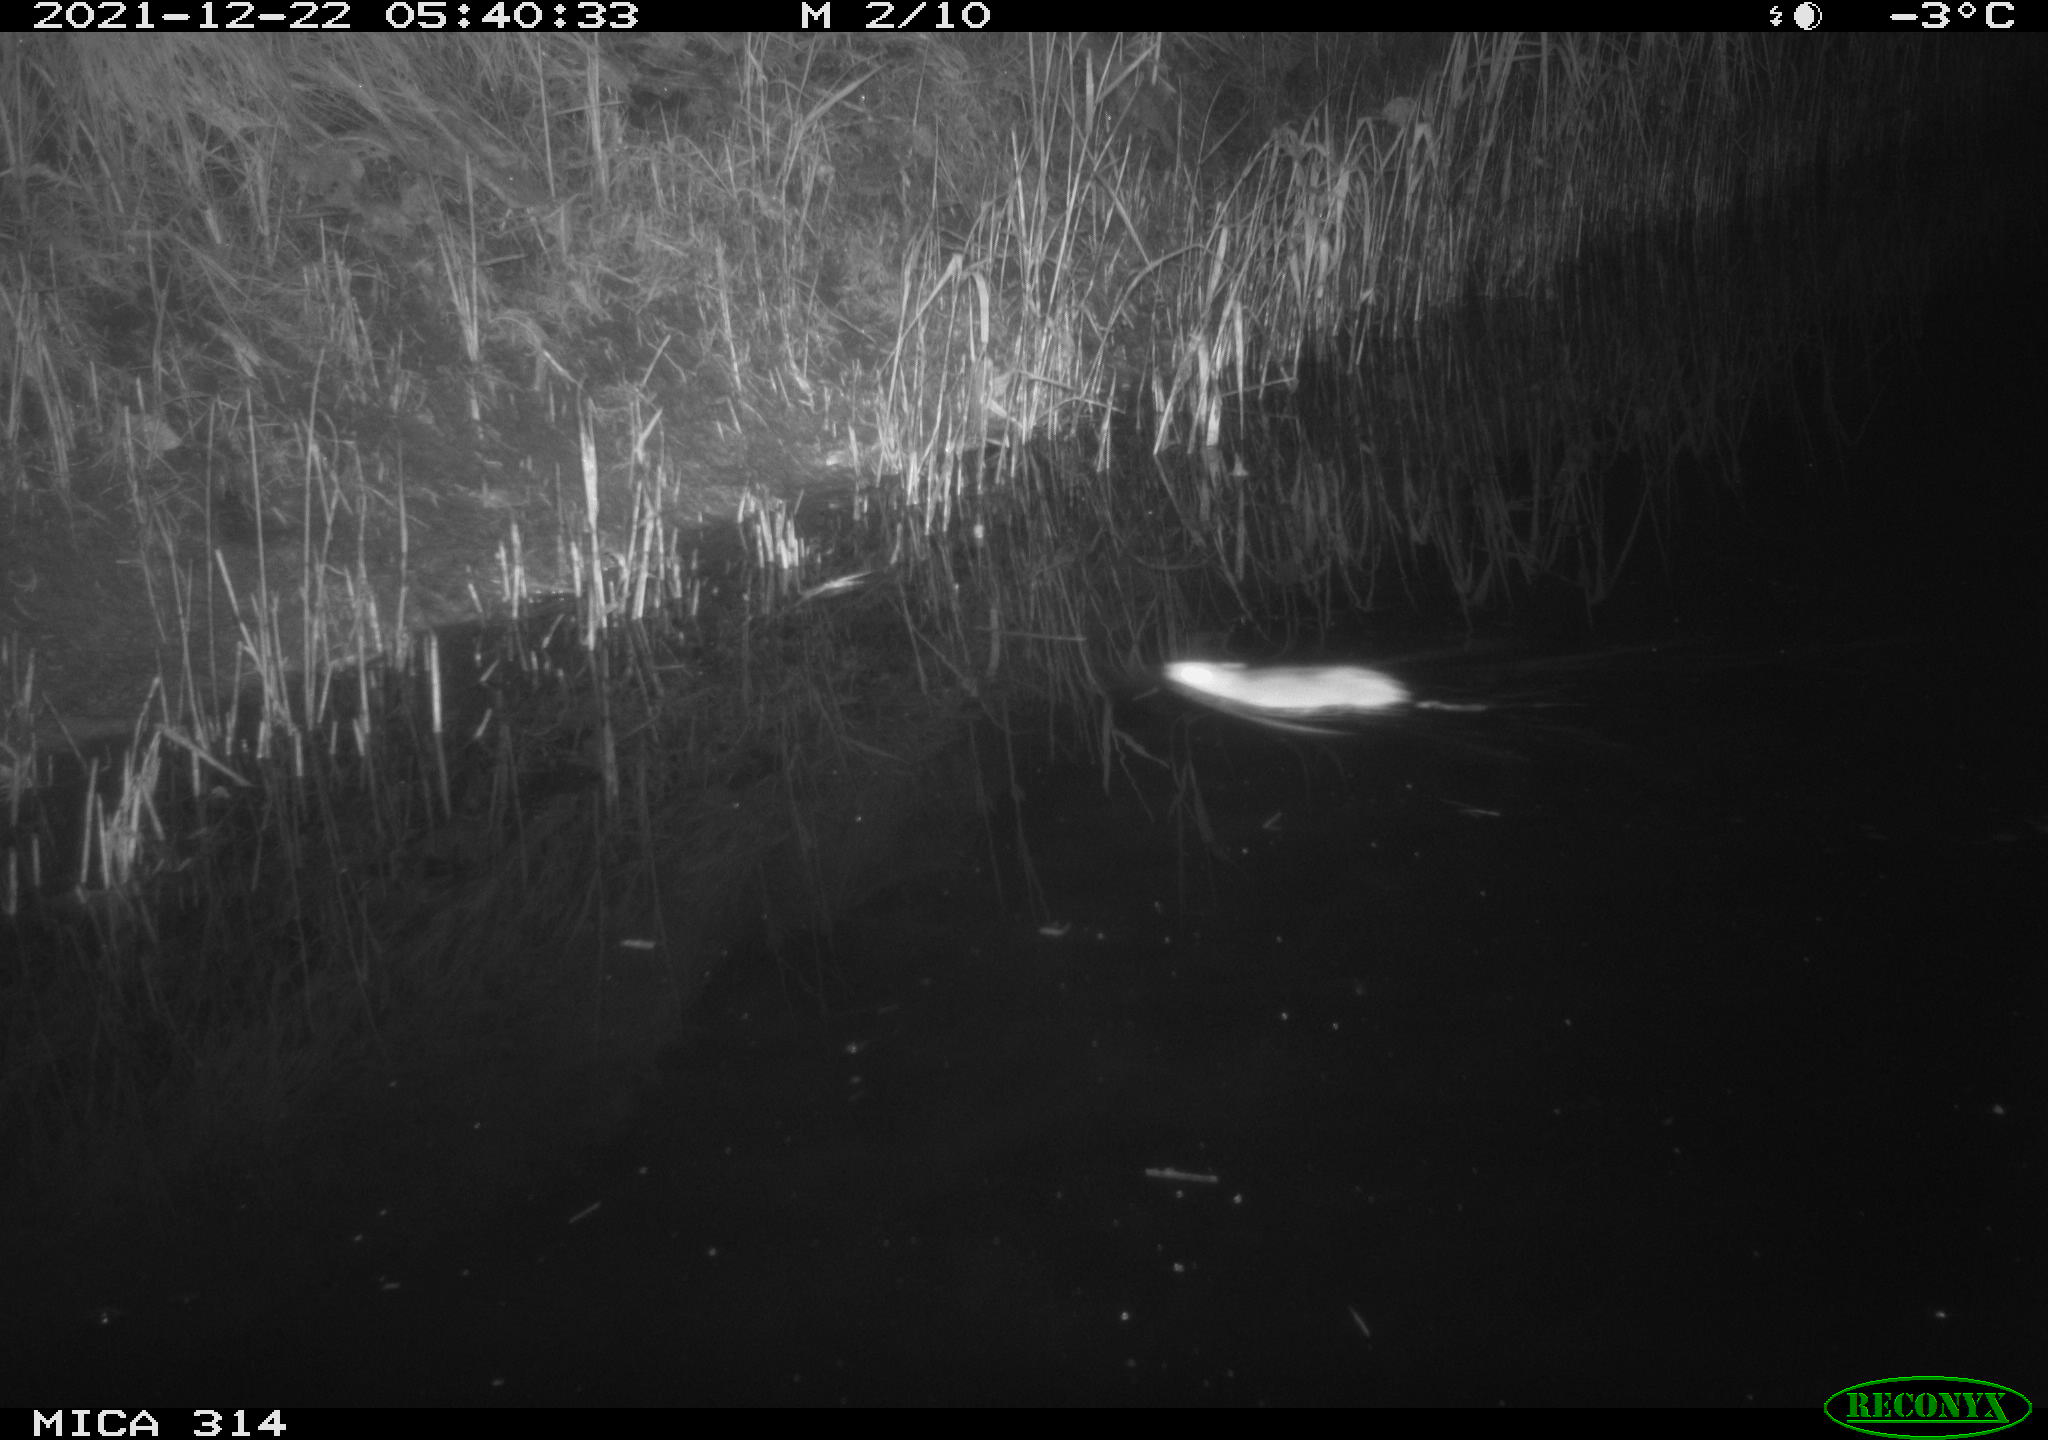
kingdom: Animalia
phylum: Chordata
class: Mammalia
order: Rodentia
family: Muridae
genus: Rattus
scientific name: Rattus norvegicus
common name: Brown rat
